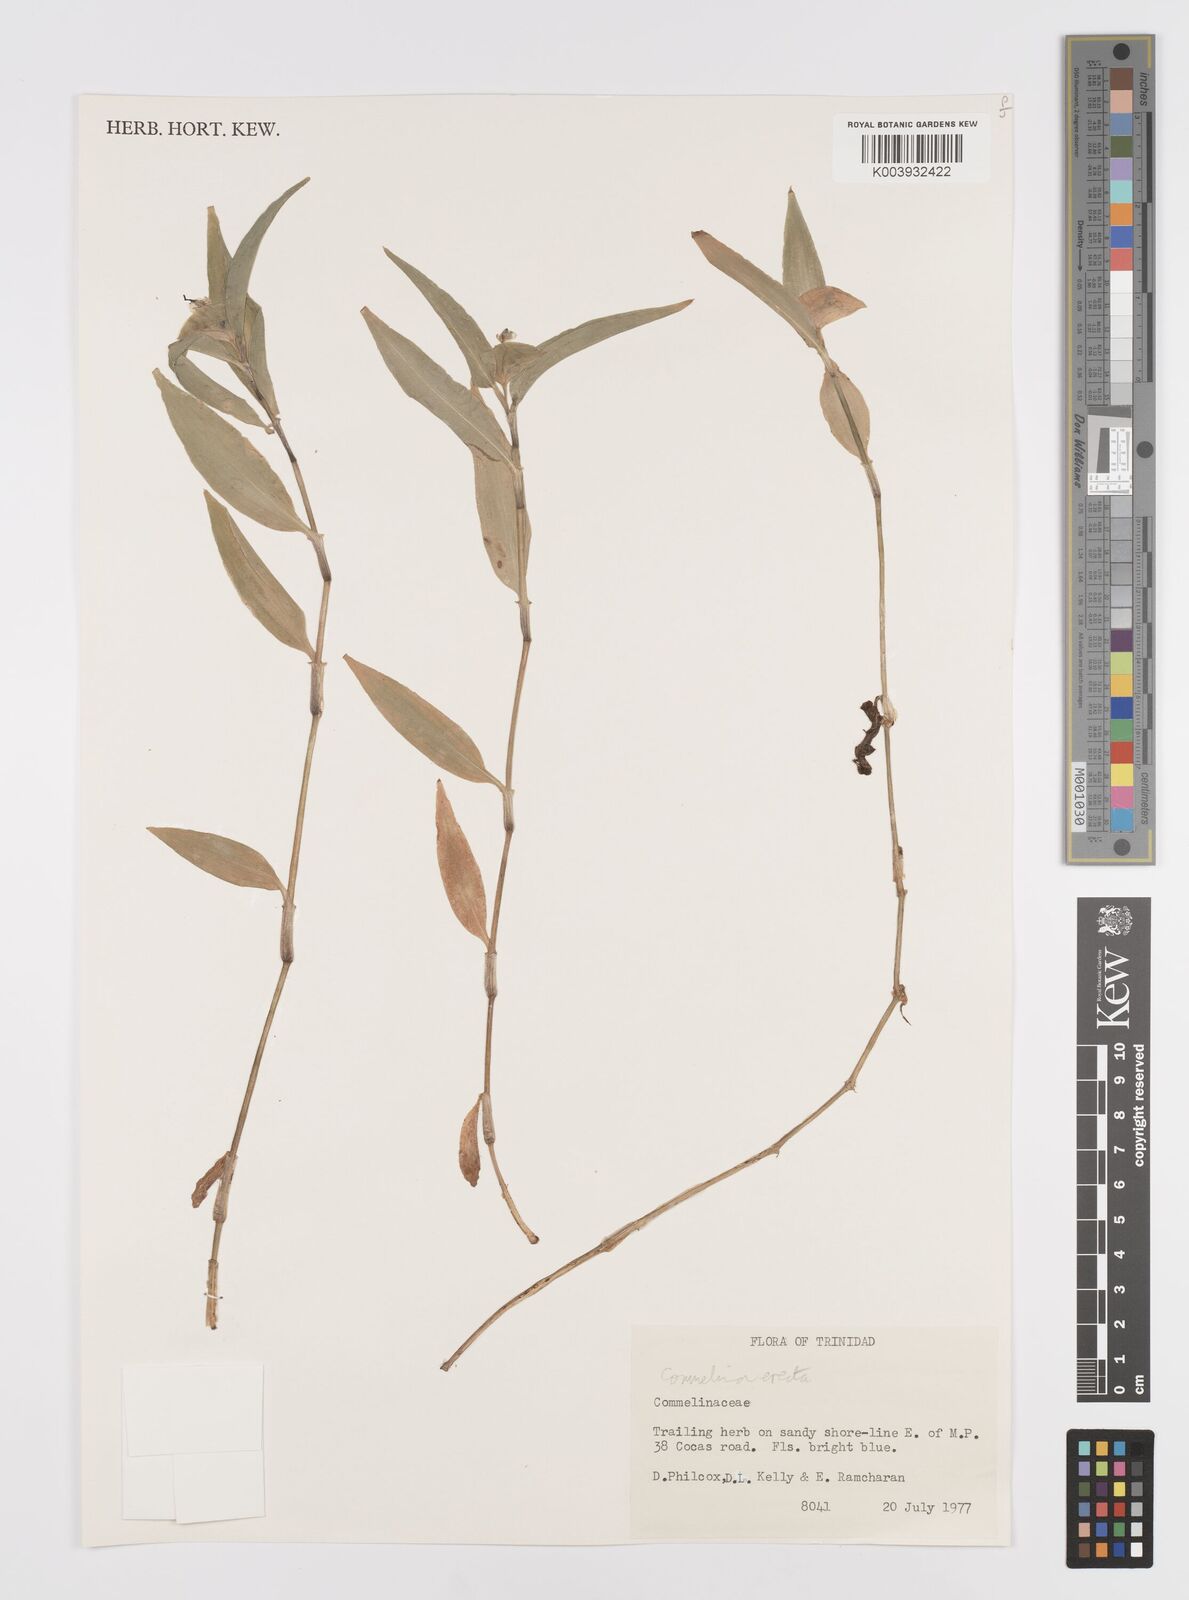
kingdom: Plantae
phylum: Tracheophyta
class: Liliopsida
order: Commelinales
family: Commelinaceae
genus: Commelina
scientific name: Commelina erecta
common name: Blousel blommetjie
